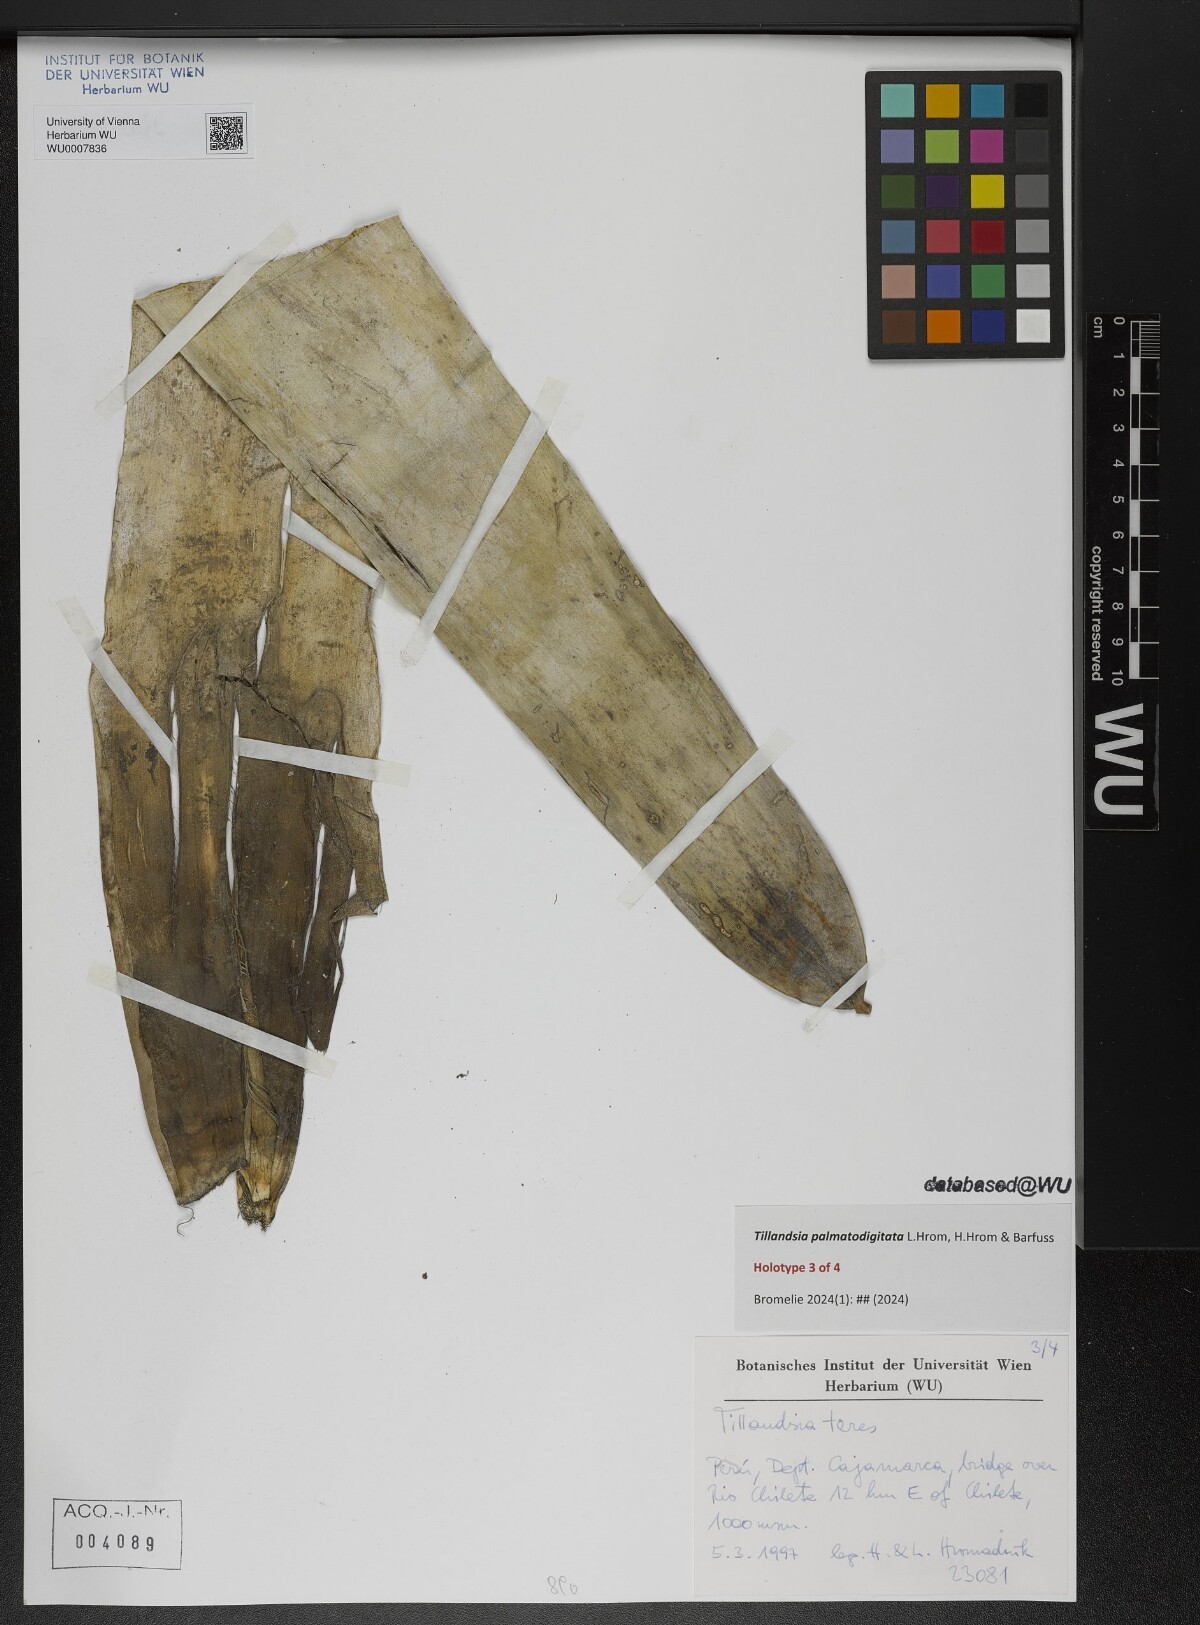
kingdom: Plantae
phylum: Tracheophyta
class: Liliopsida
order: Poales
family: Bromeliaceae
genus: Tillandsia
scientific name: Tillandsia
